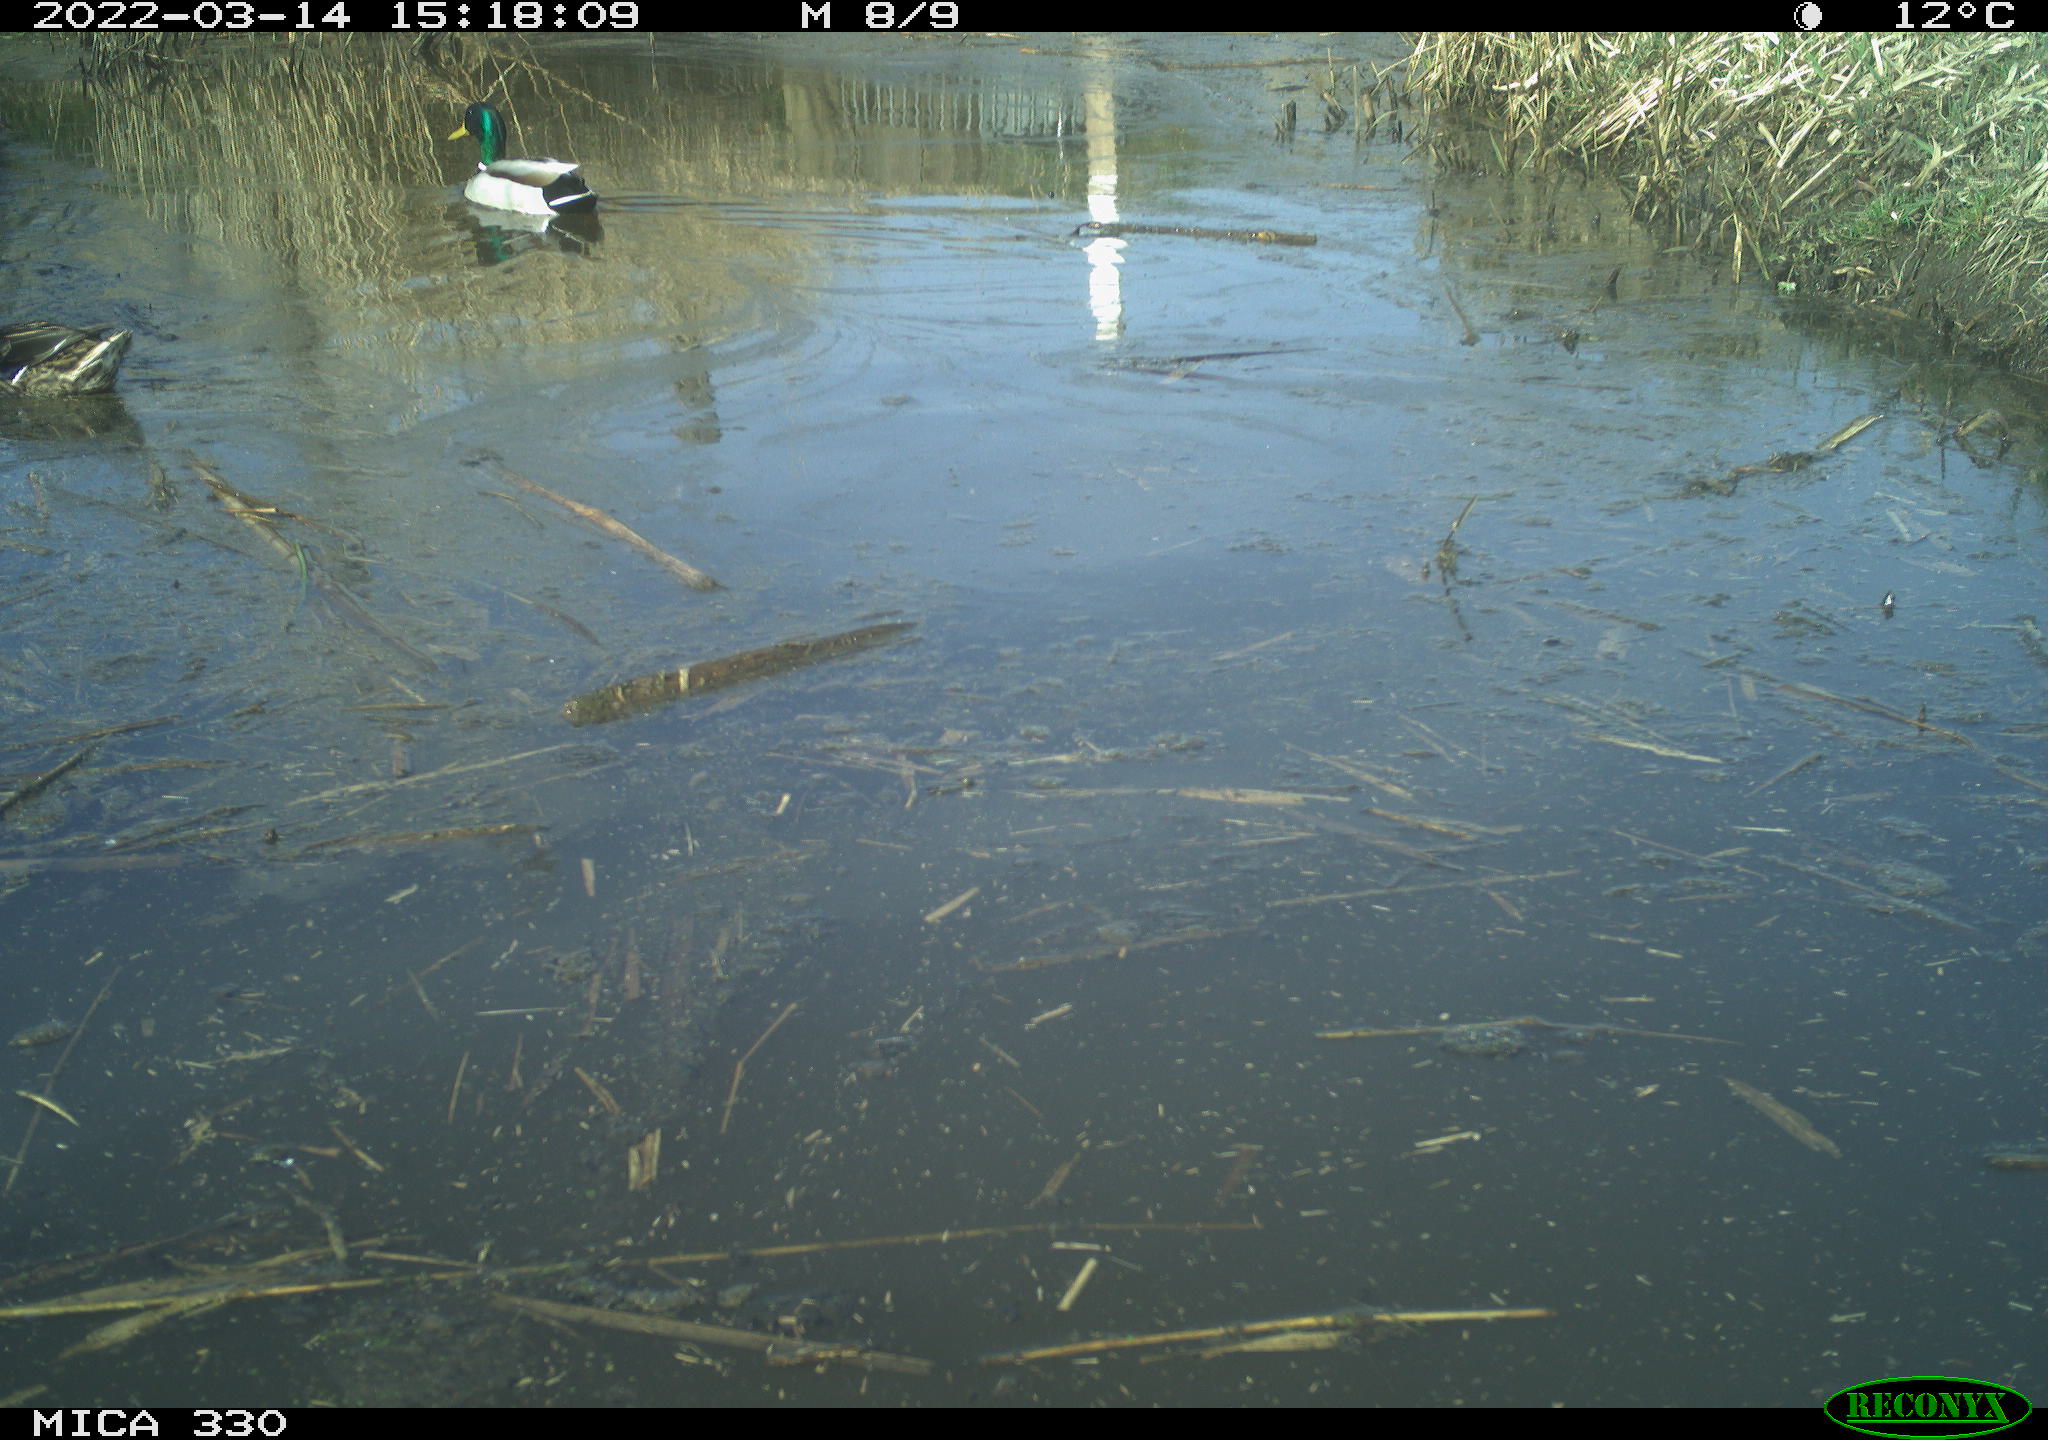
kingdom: Animalia
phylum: Chordata
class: Aves
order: Anseriformes
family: Anatidae
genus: Anas
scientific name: Anas platyrhynchos
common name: Mallard
